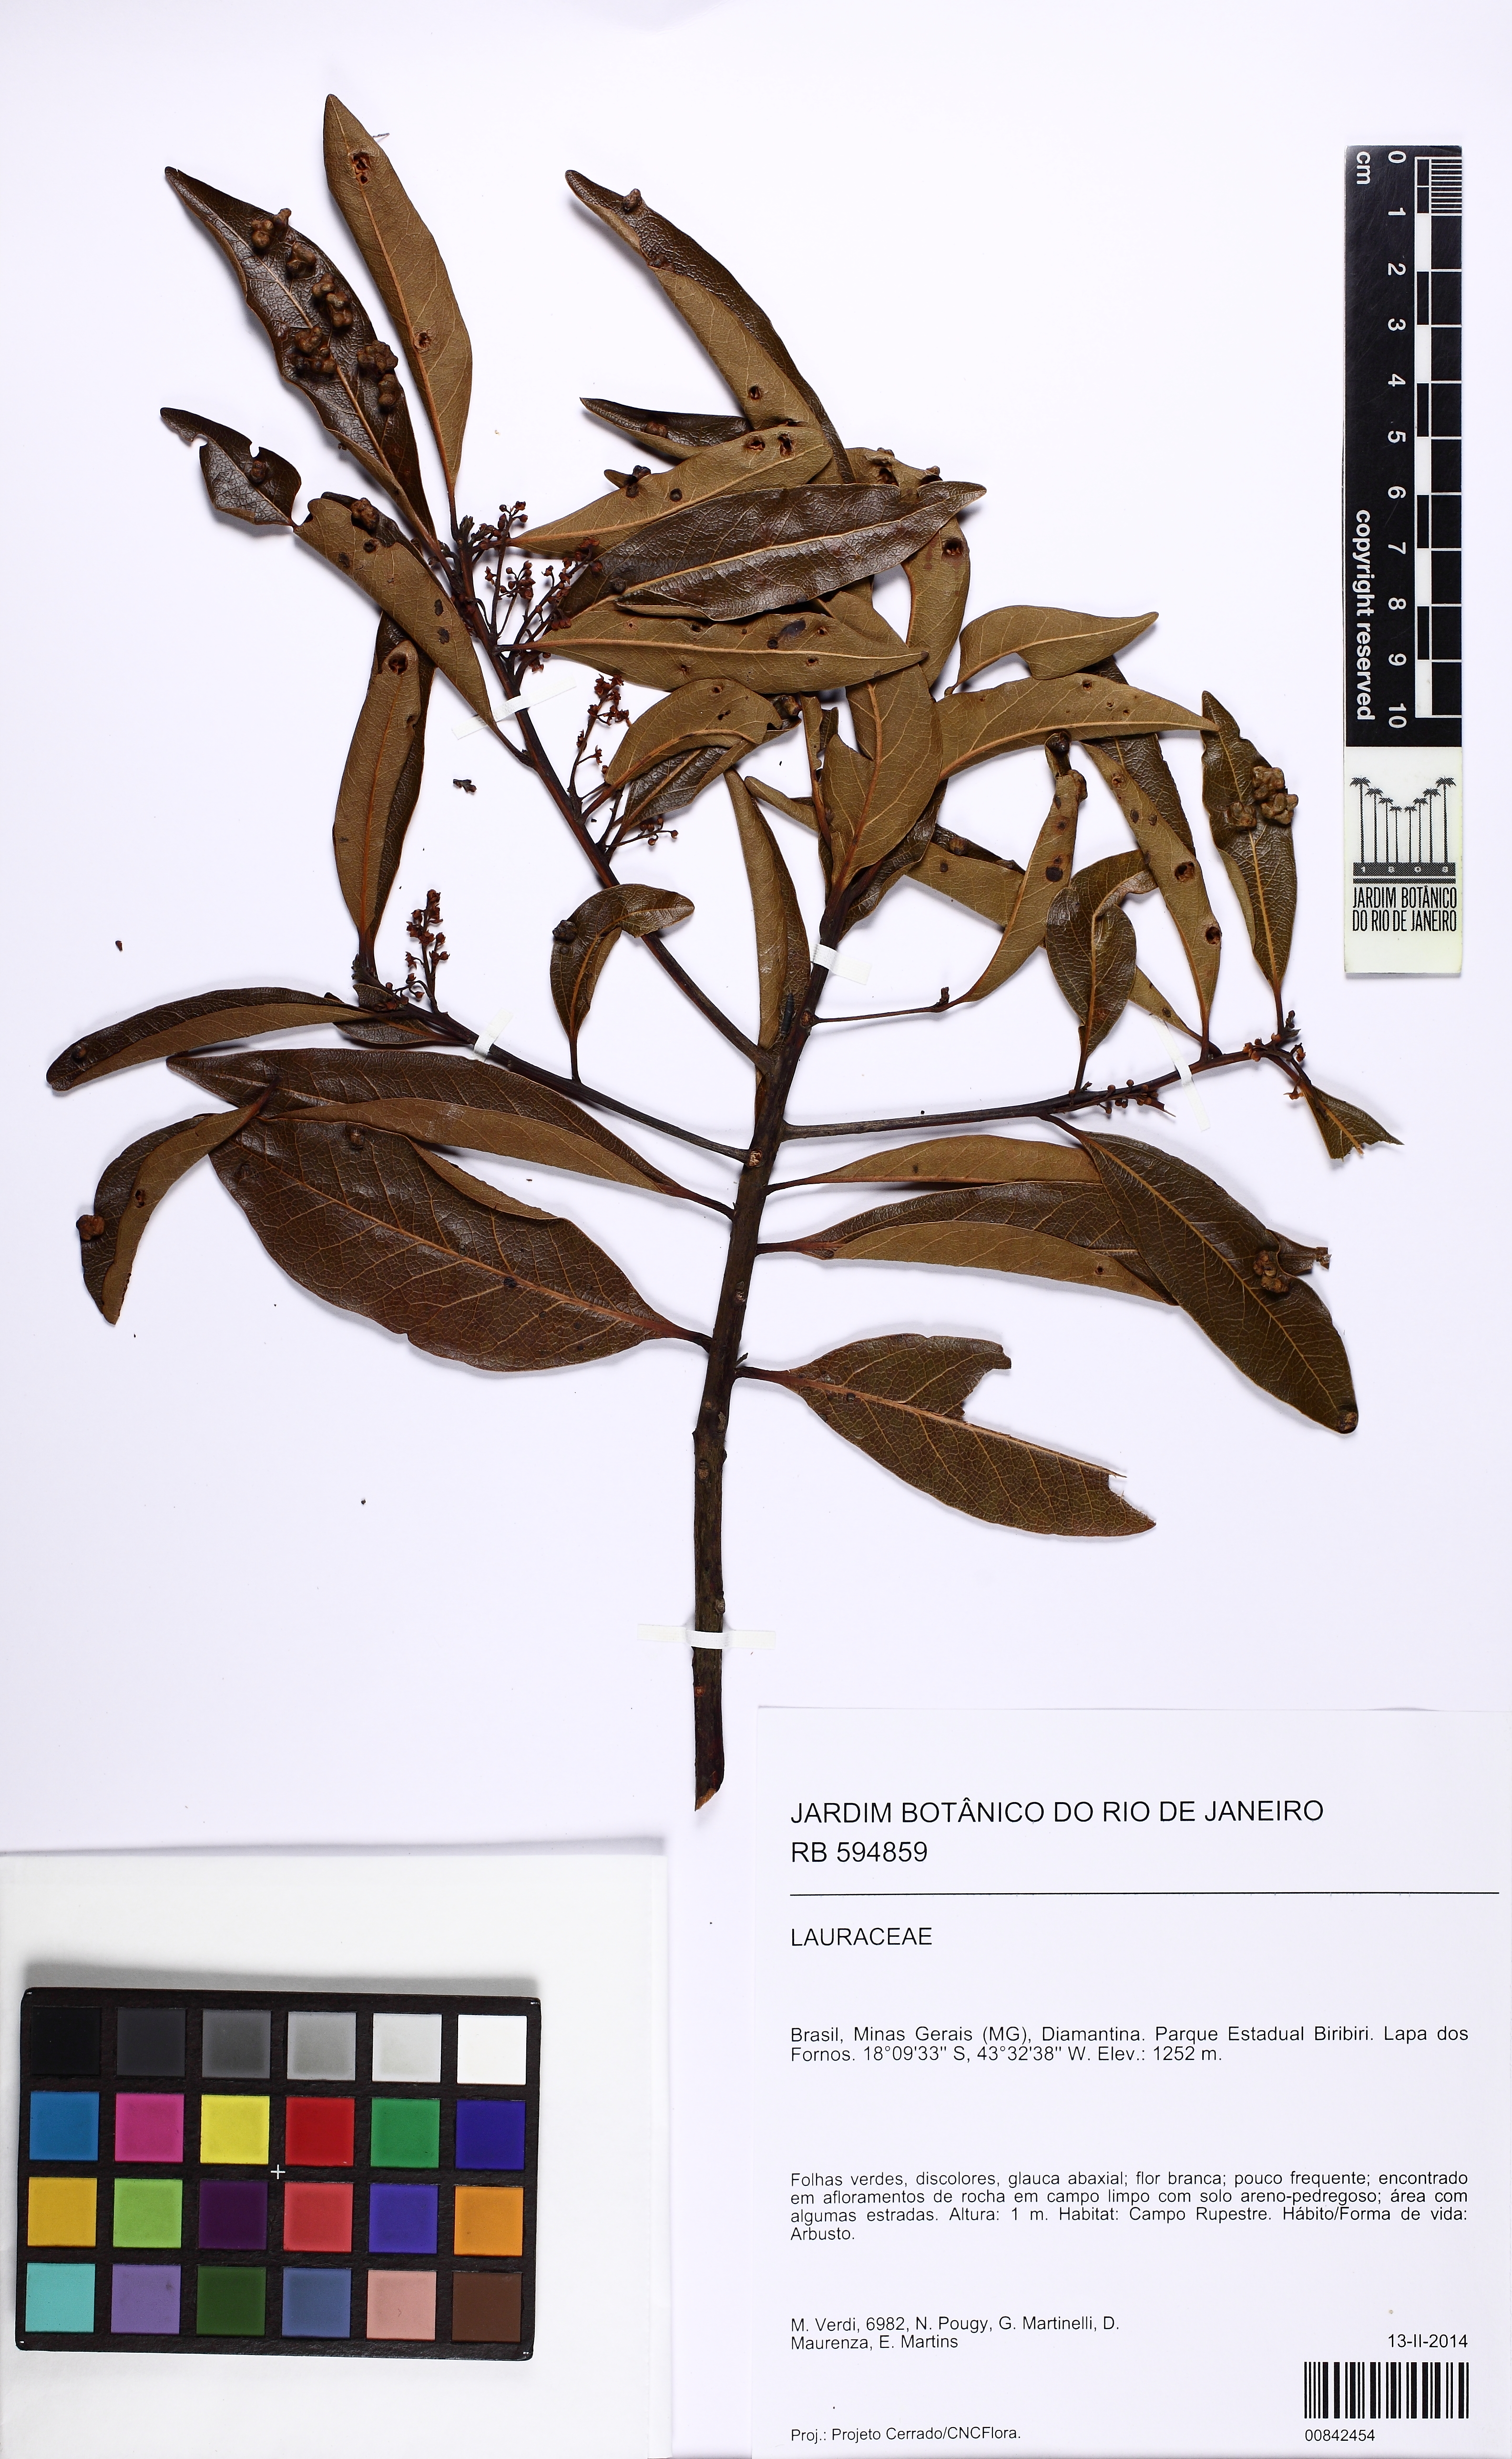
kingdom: Plantae
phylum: Tracheophyta
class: Magnoliopsida
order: Laurales
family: Lauraceae
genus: Mespilodaphne
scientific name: Mespilodaphne notata
